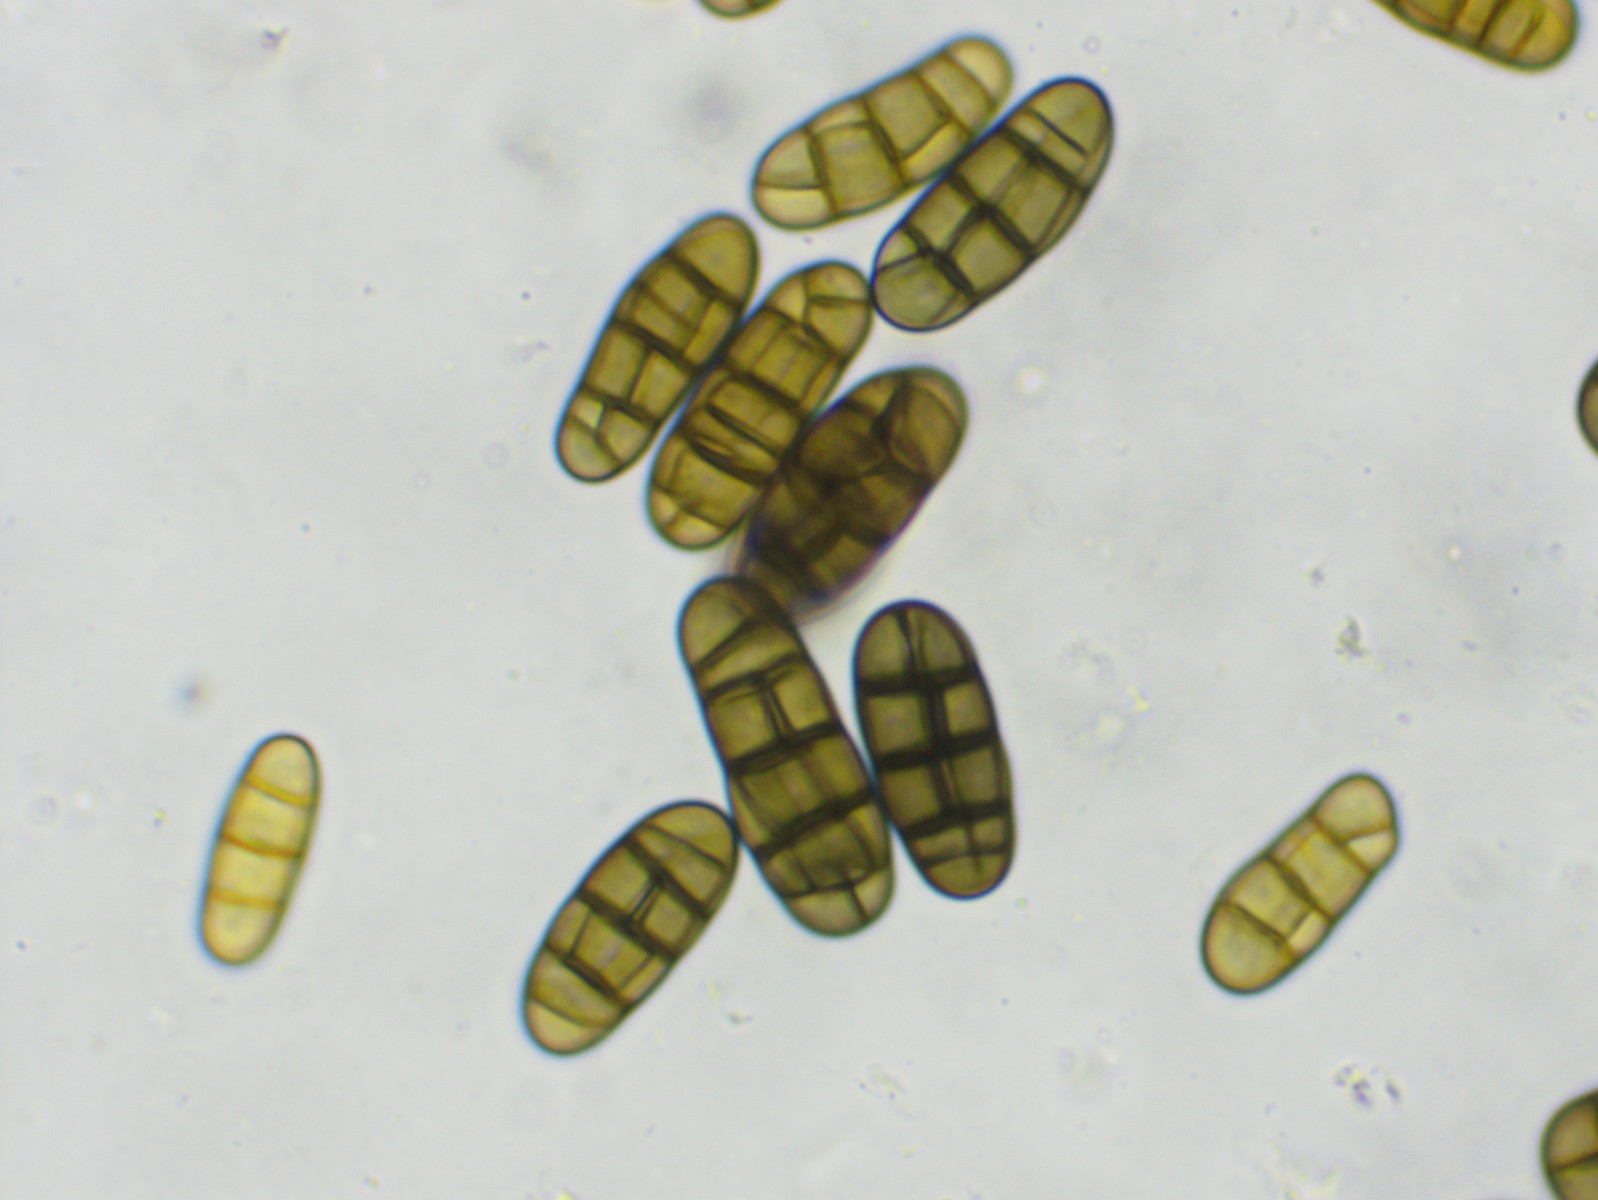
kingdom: Fungi
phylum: Ascomycota
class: Dothideomycetes
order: Pleosporales
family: Camarosporidiellaceae
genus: Camarosporidiella
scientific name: Camarosporidiella laburni
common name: guldregn-tykbær
